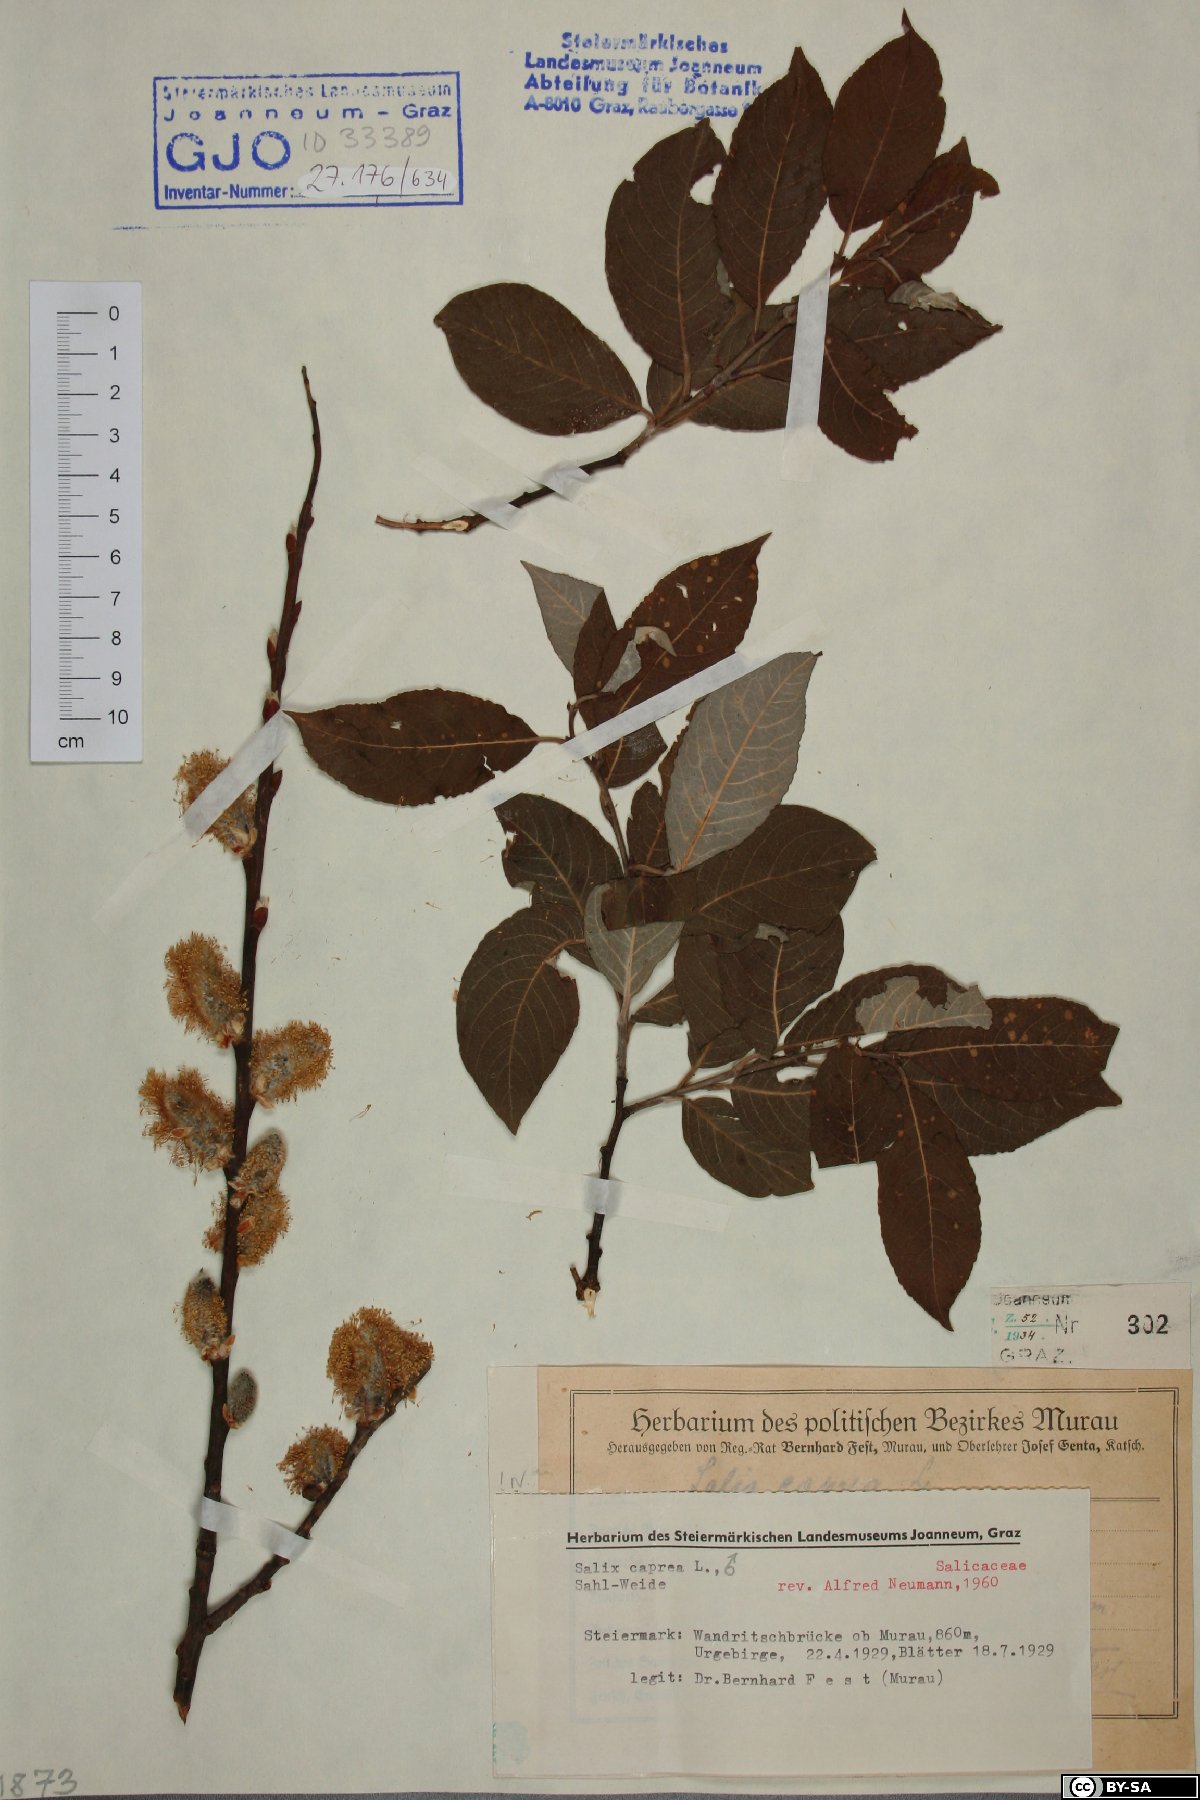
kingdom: Plantae
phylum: Tracheophyta
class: Magnoliopsida
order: Malpighiales
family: Salicaceae
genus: Salix
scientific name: Salix caprea
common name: Goat willow
